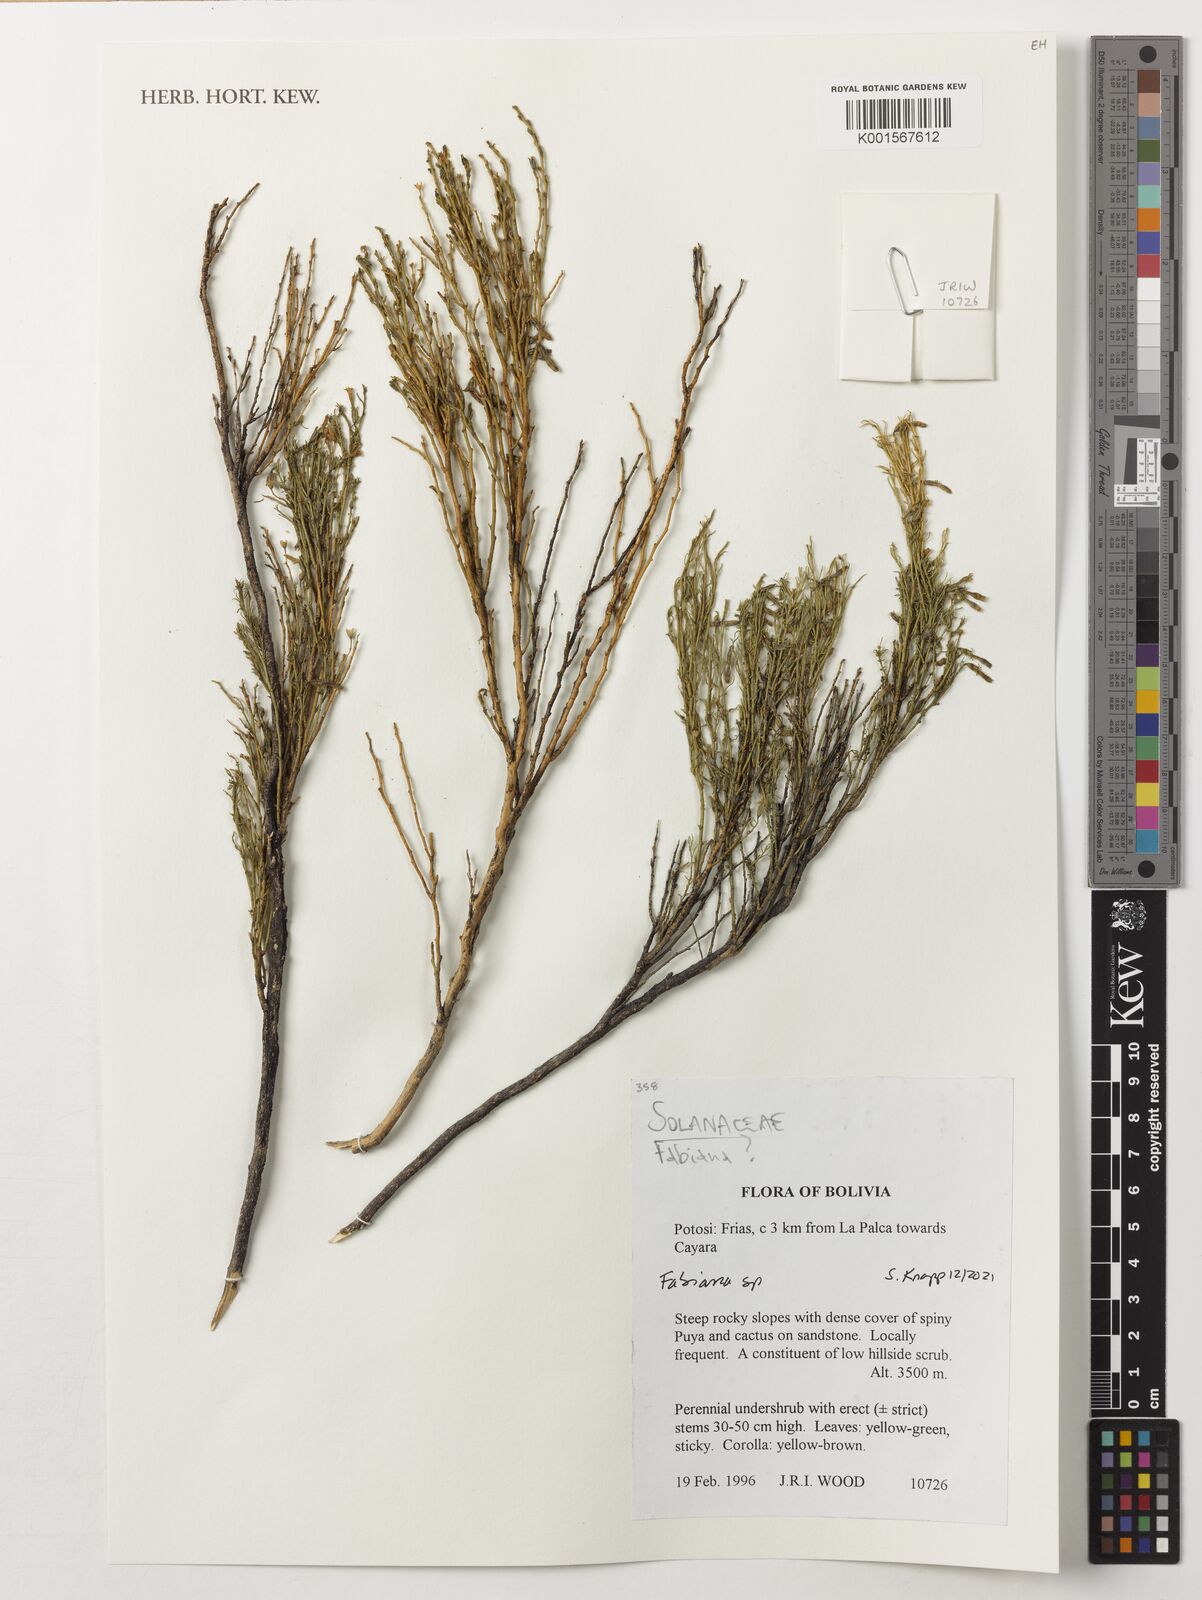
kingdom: Plantae
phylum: Tracheophyta
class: Magnoliopsida
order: Solanales
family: Solanaceae
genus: Fabiana
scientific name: Fabiana
